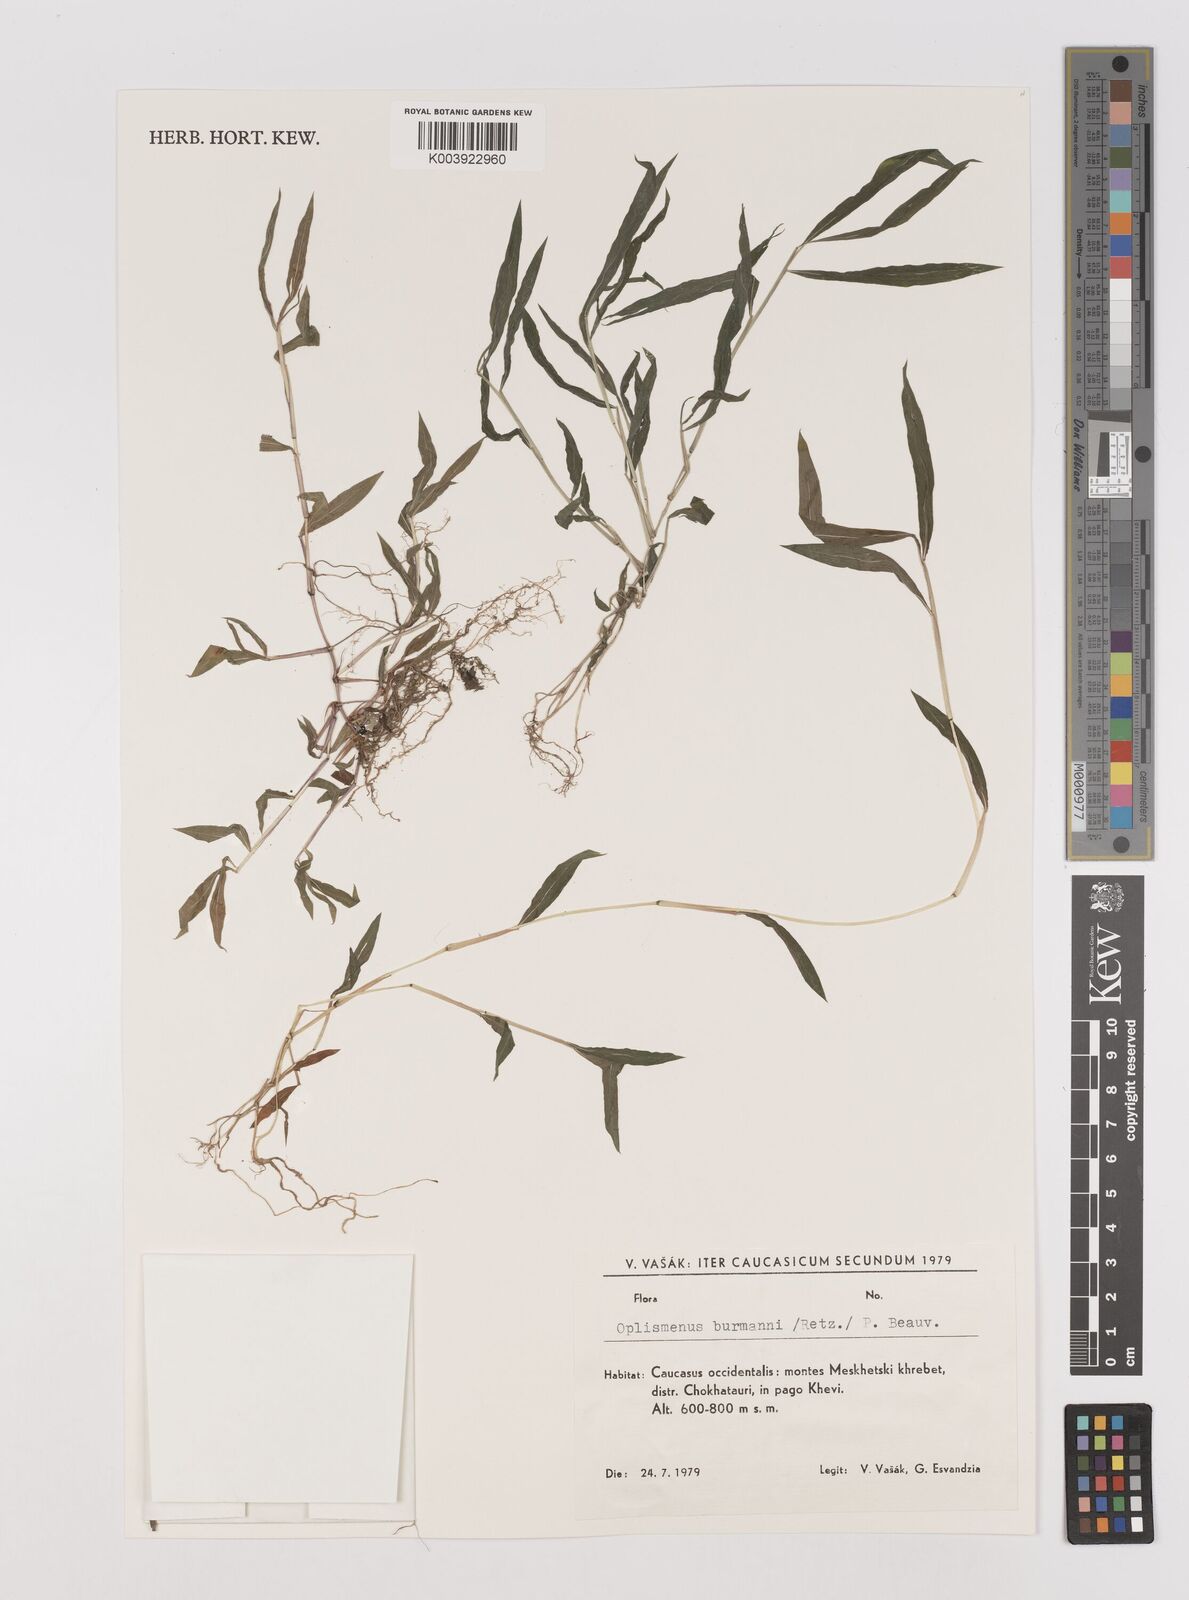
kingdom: Plantae
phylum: Tracheophyta
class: Liliopsida
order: Poales
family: Poaceae
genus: Oplismenus
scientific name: Oplismenus burmanni
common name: Burmann's basketgrass
